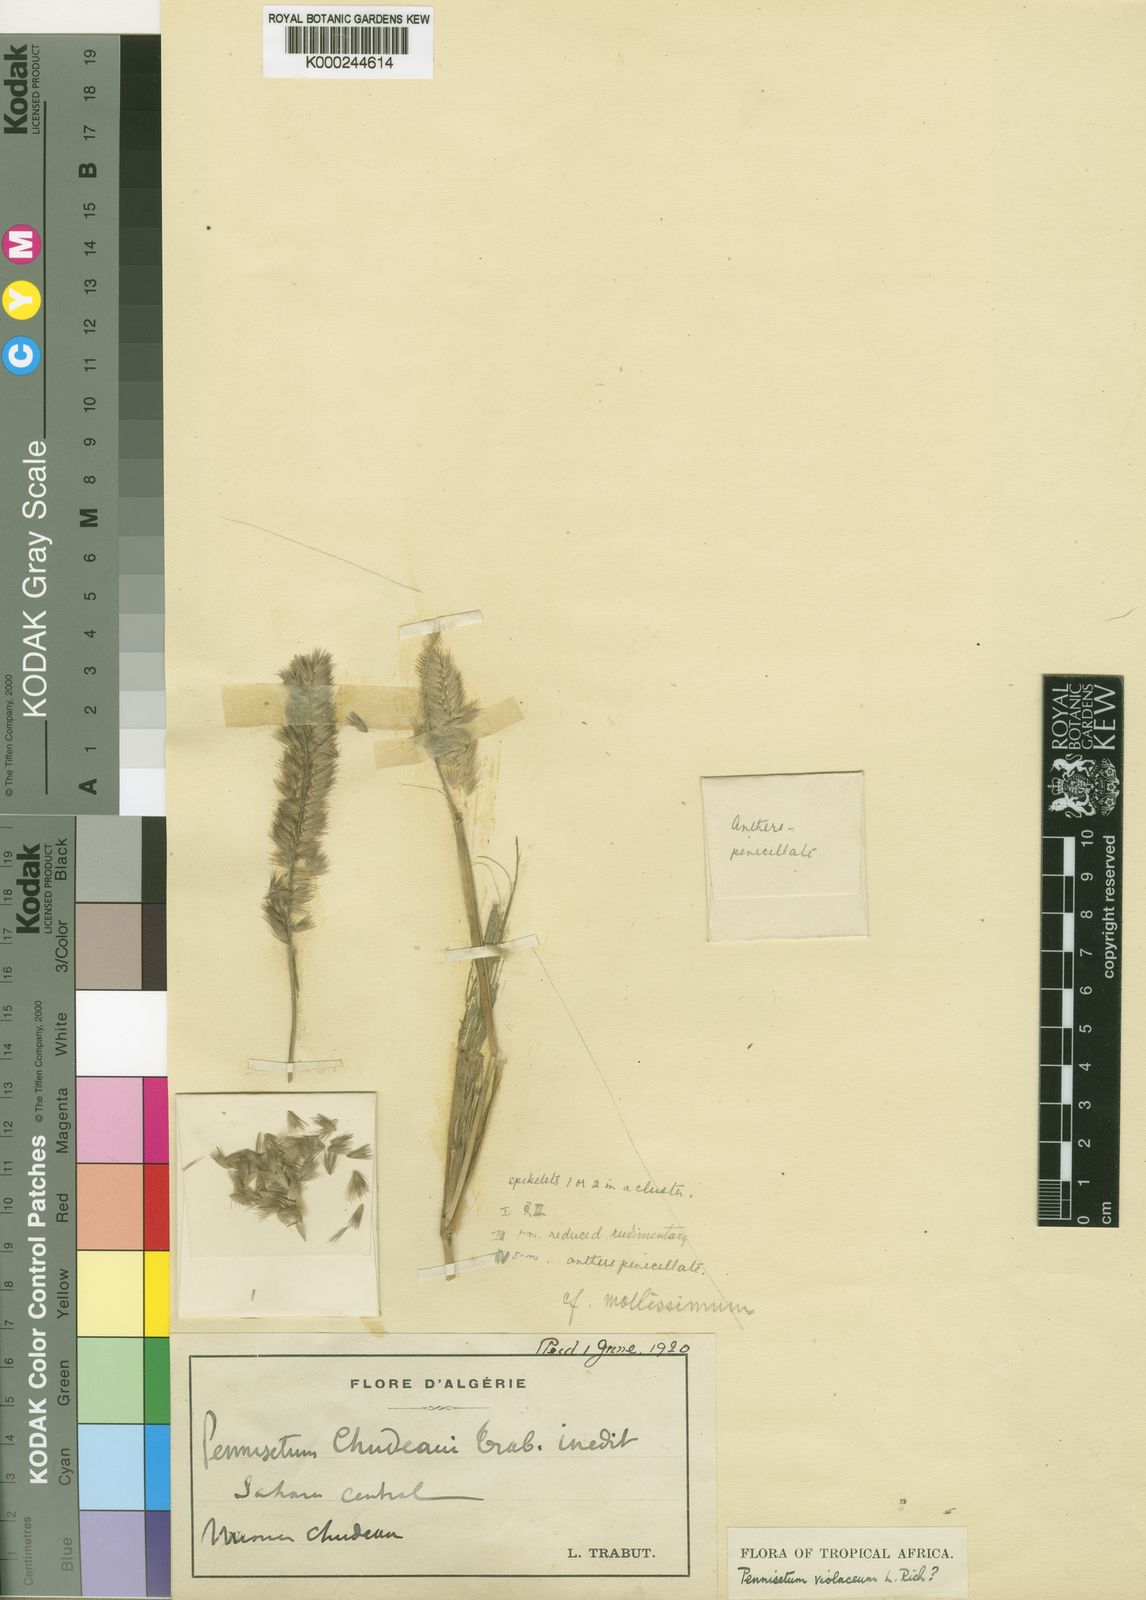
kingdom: Plantae
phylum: Tracheophyta
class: Liliopsida
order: Poales
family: Poaceae
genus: Cenchrus
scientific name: Cenchrus violaceus
